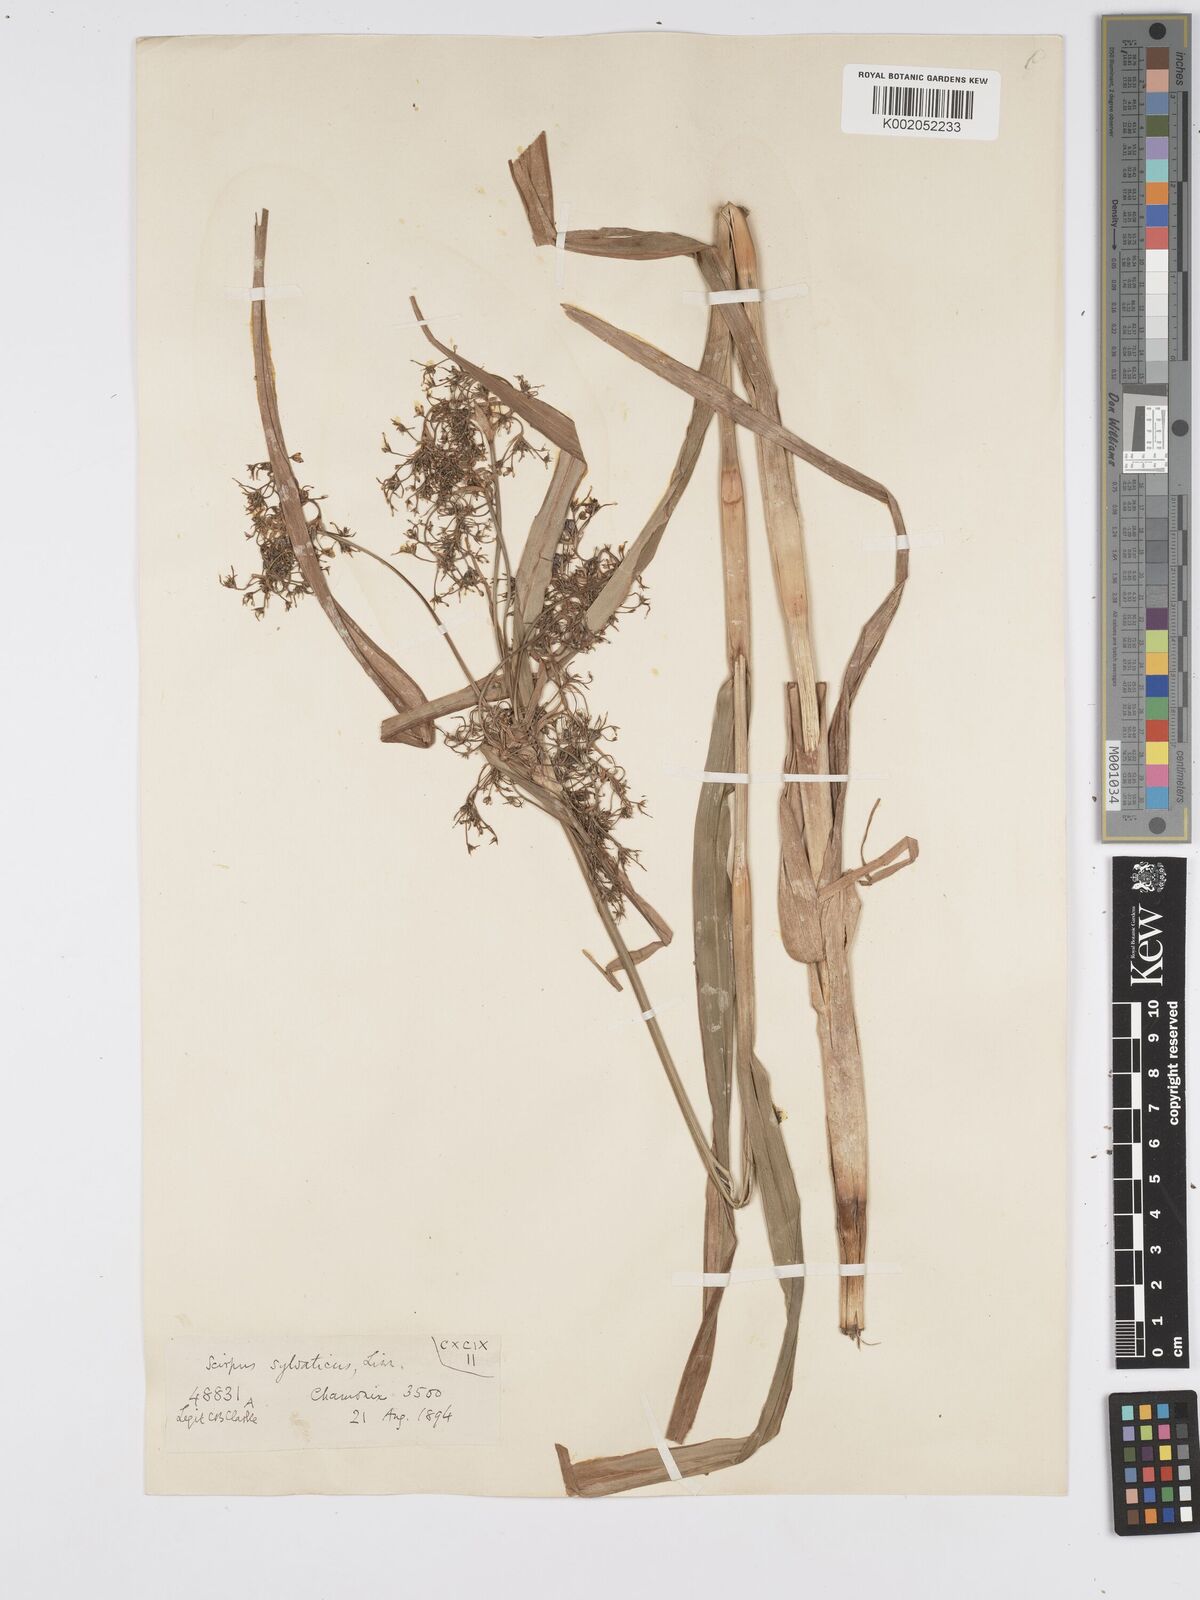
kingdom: Plantae
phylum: Tracheophyta
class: Liliopsida
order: Poales
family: Cyperaceae
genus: Scirpus
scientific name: Scirpus sylvaticus
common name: Wood club-rush
